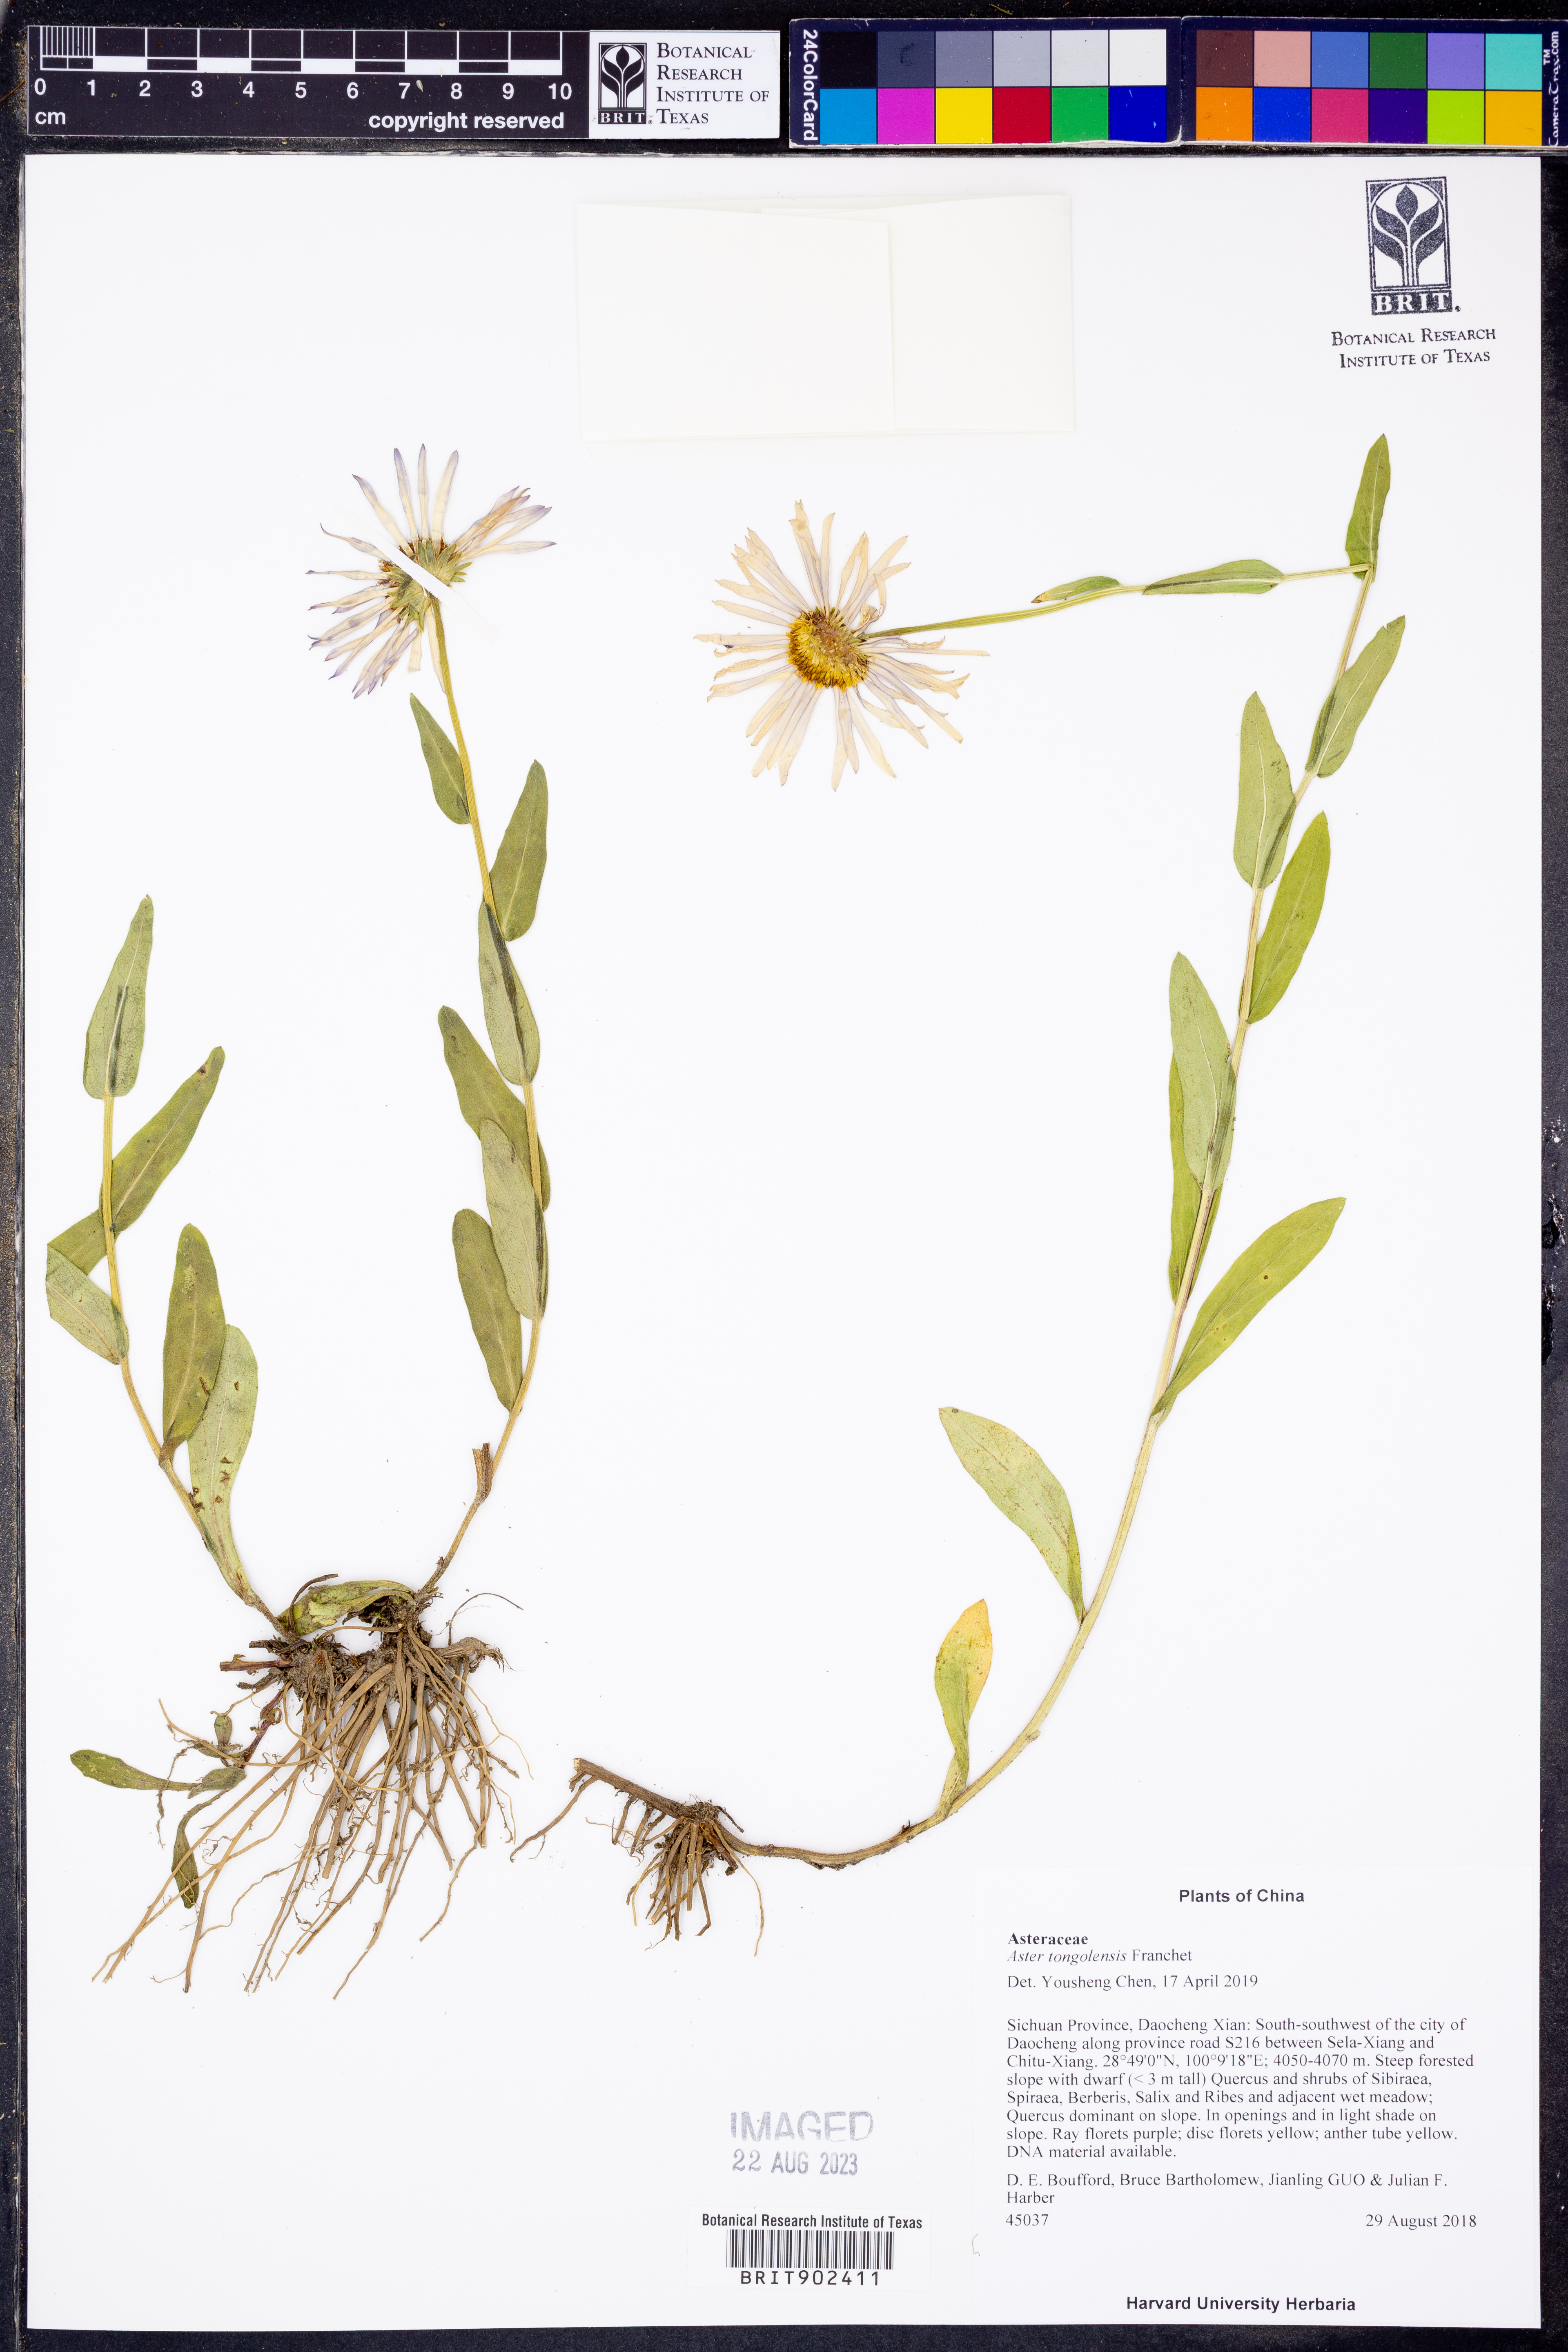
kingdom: Plantae
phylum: Tracheophyta
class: Magnoliopsida
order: Asterales
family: Asteraceae
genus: Aster
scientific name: Aster tongolensis
